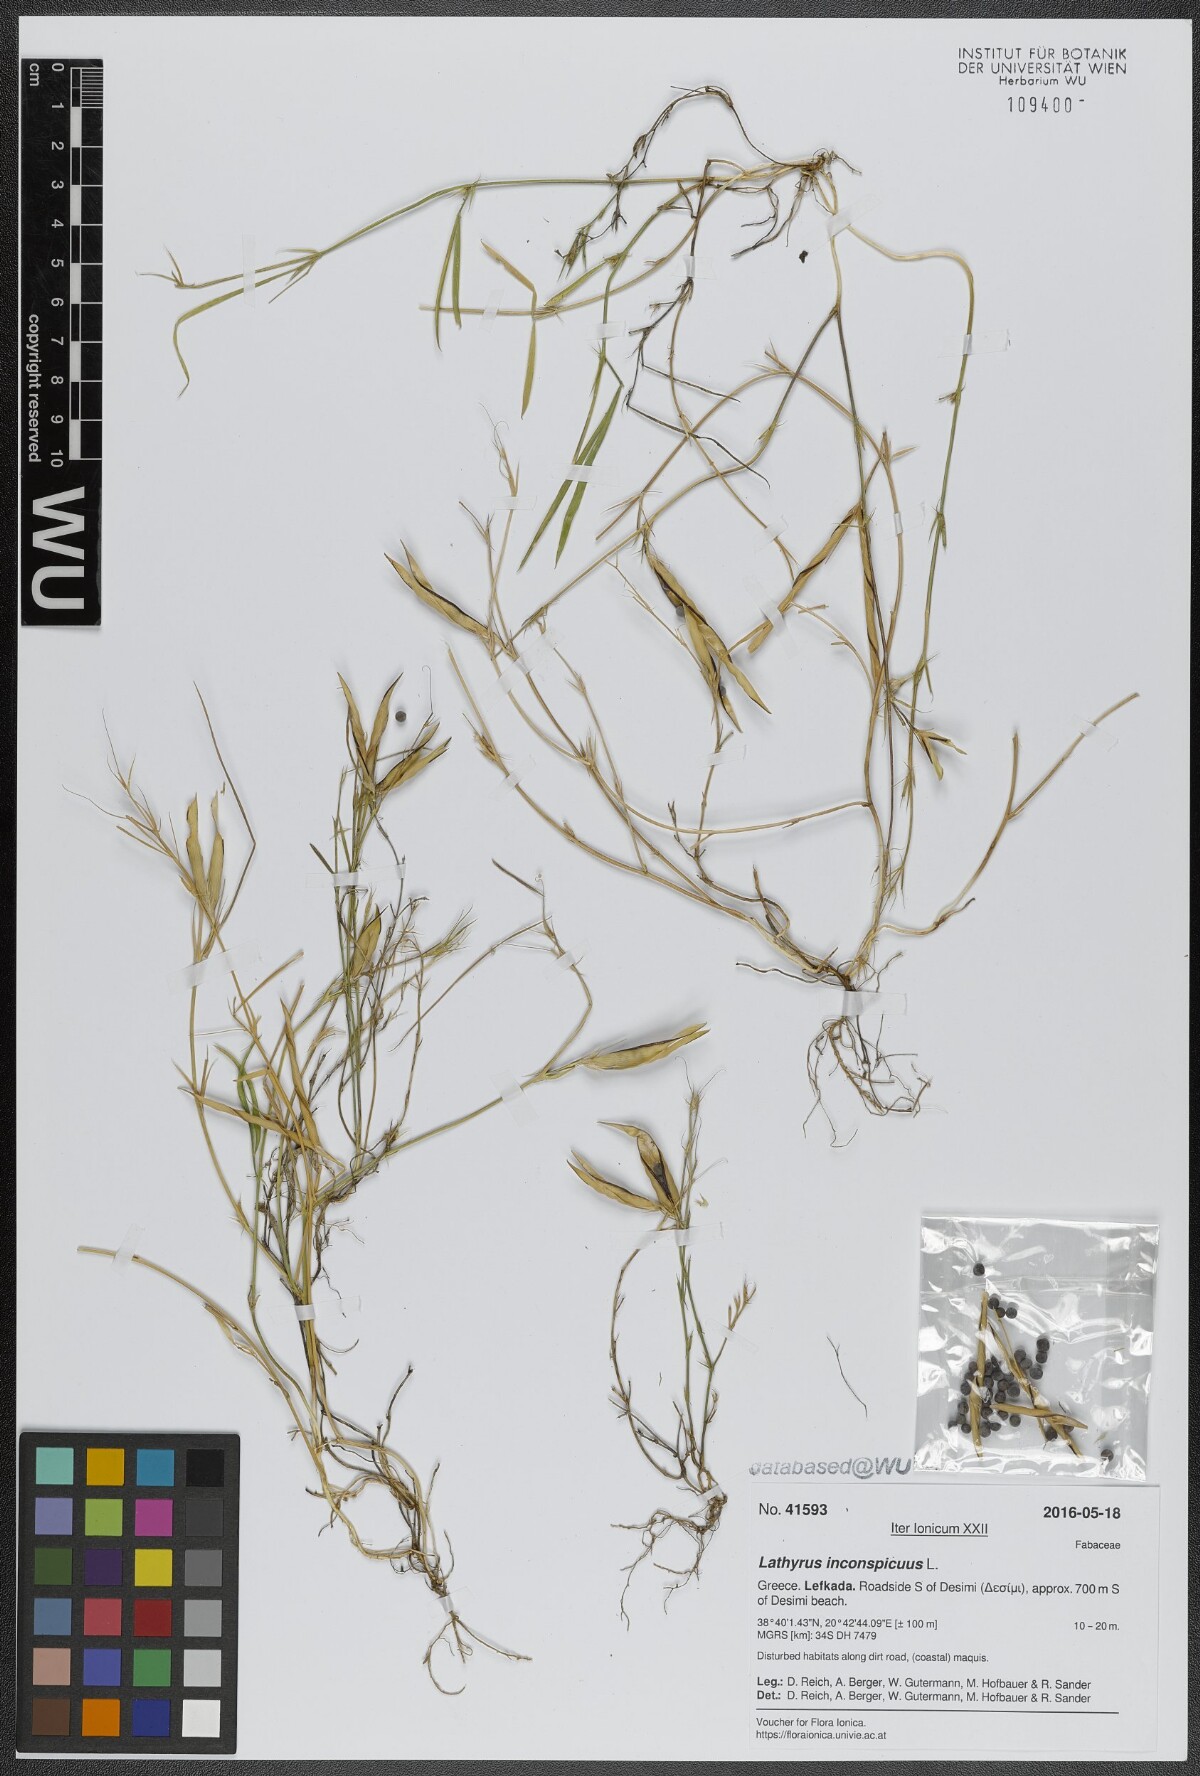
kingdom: Plantae
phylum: Tracheophyta
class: Magnoliopsida
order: Fabales
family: Fabaceae
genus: Lathyrus
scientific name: Lathyrus inconspicuus
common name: Inconspicuous pea
